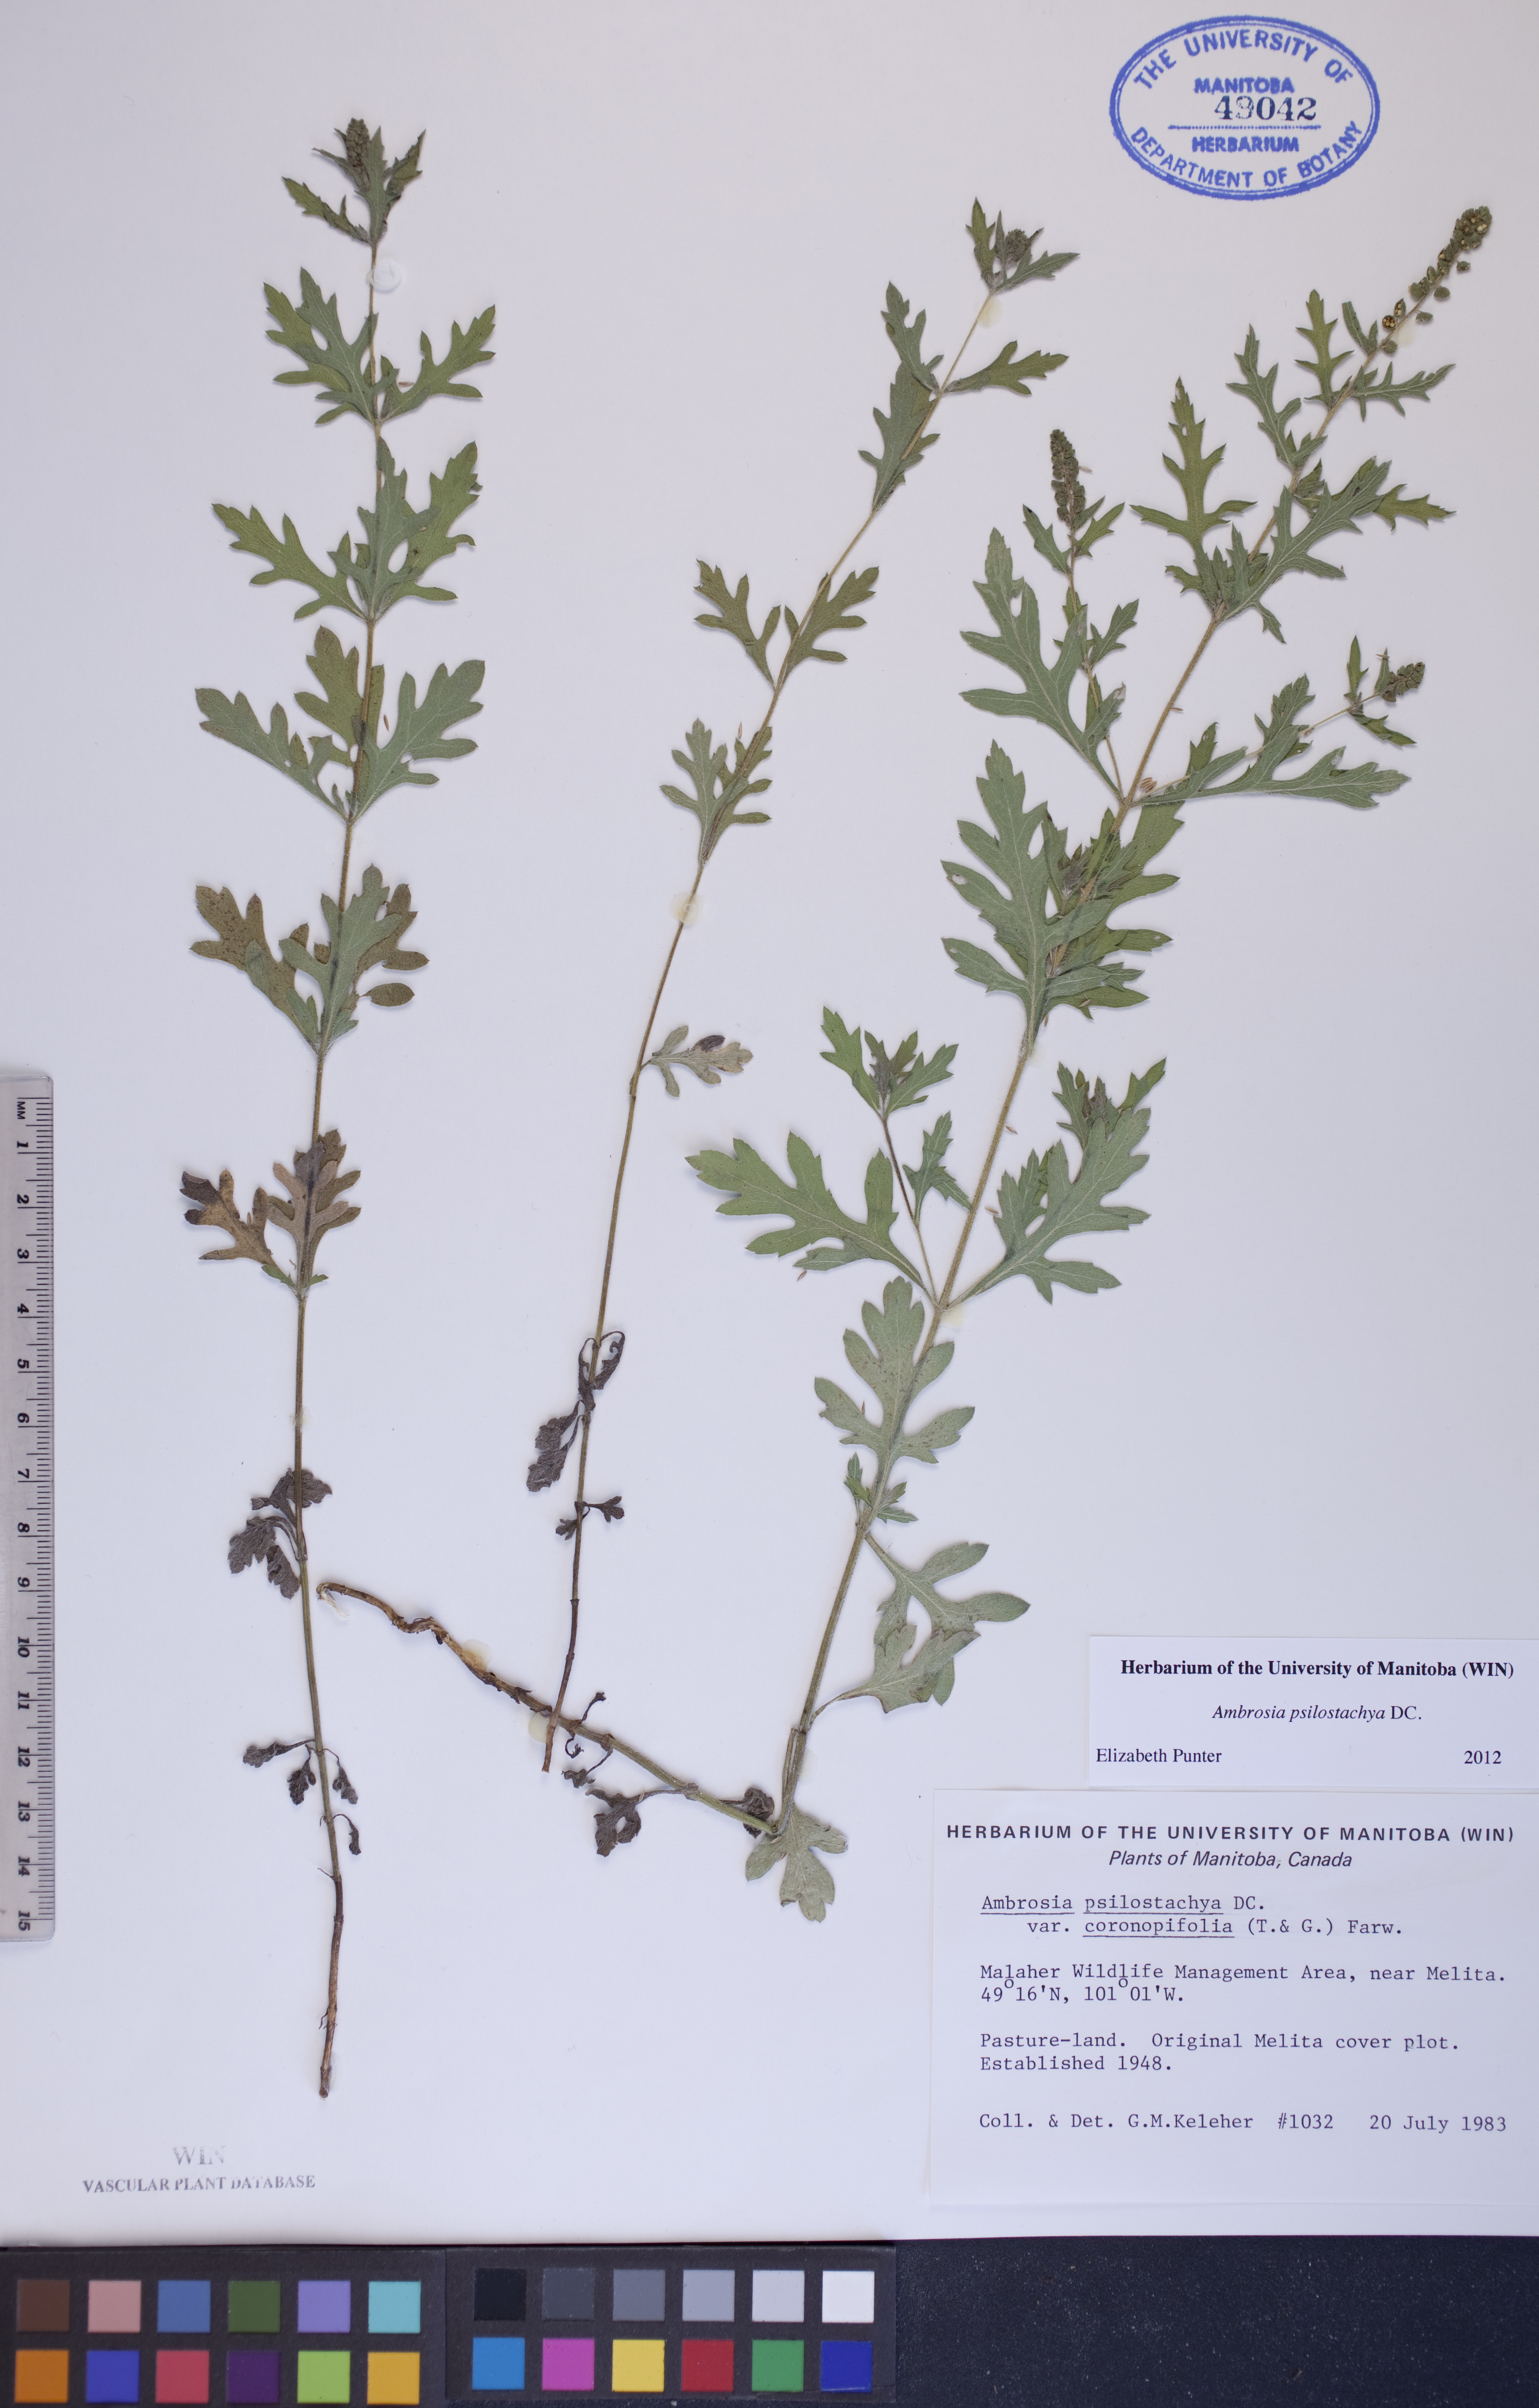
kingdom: Plantae
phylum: Tracheophyta
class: Magnoliopsida
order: Asterales
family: Asteraceae
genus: Ambrosia
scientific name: Ambrosia psilostachya
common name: Perennial ragweed
